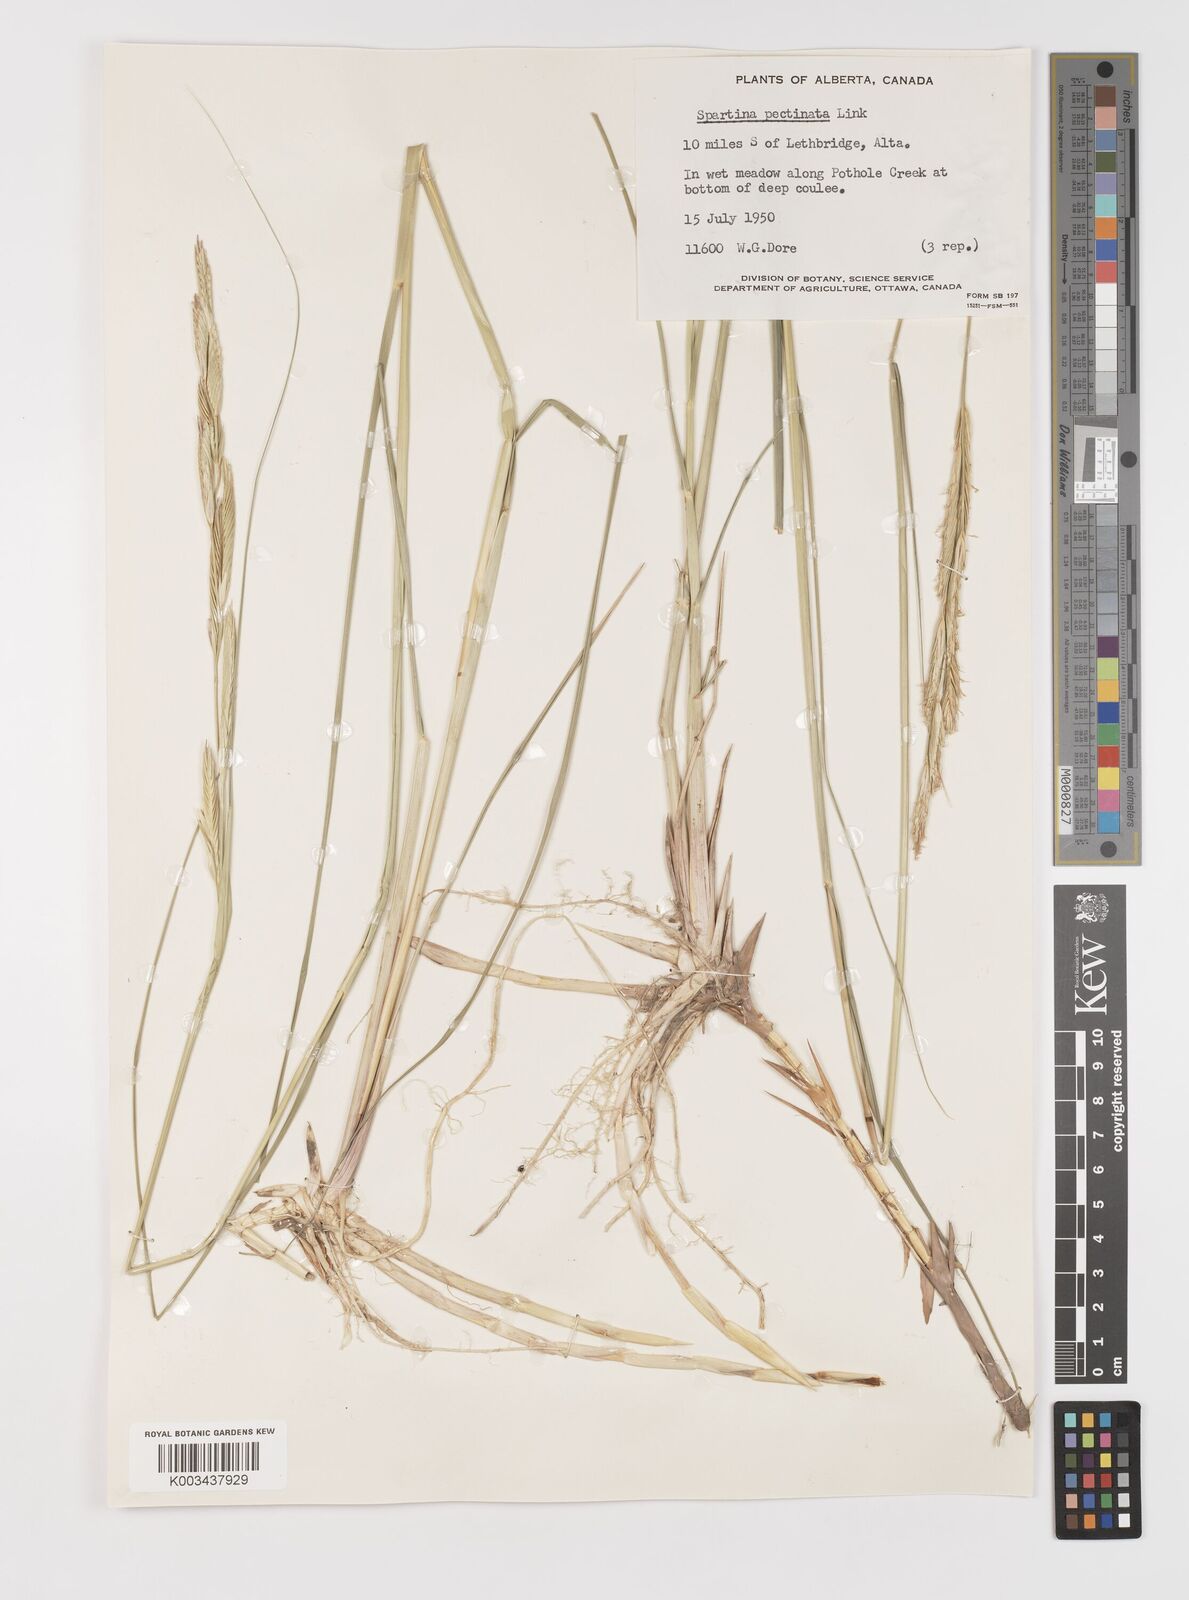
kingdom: Plantae
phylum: Tracheophyta
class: Liliopsida
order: Poales
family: Poaceae
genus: Sporobolus
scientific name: Sporobolus michauxianus
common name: Freshwater cordgrass
